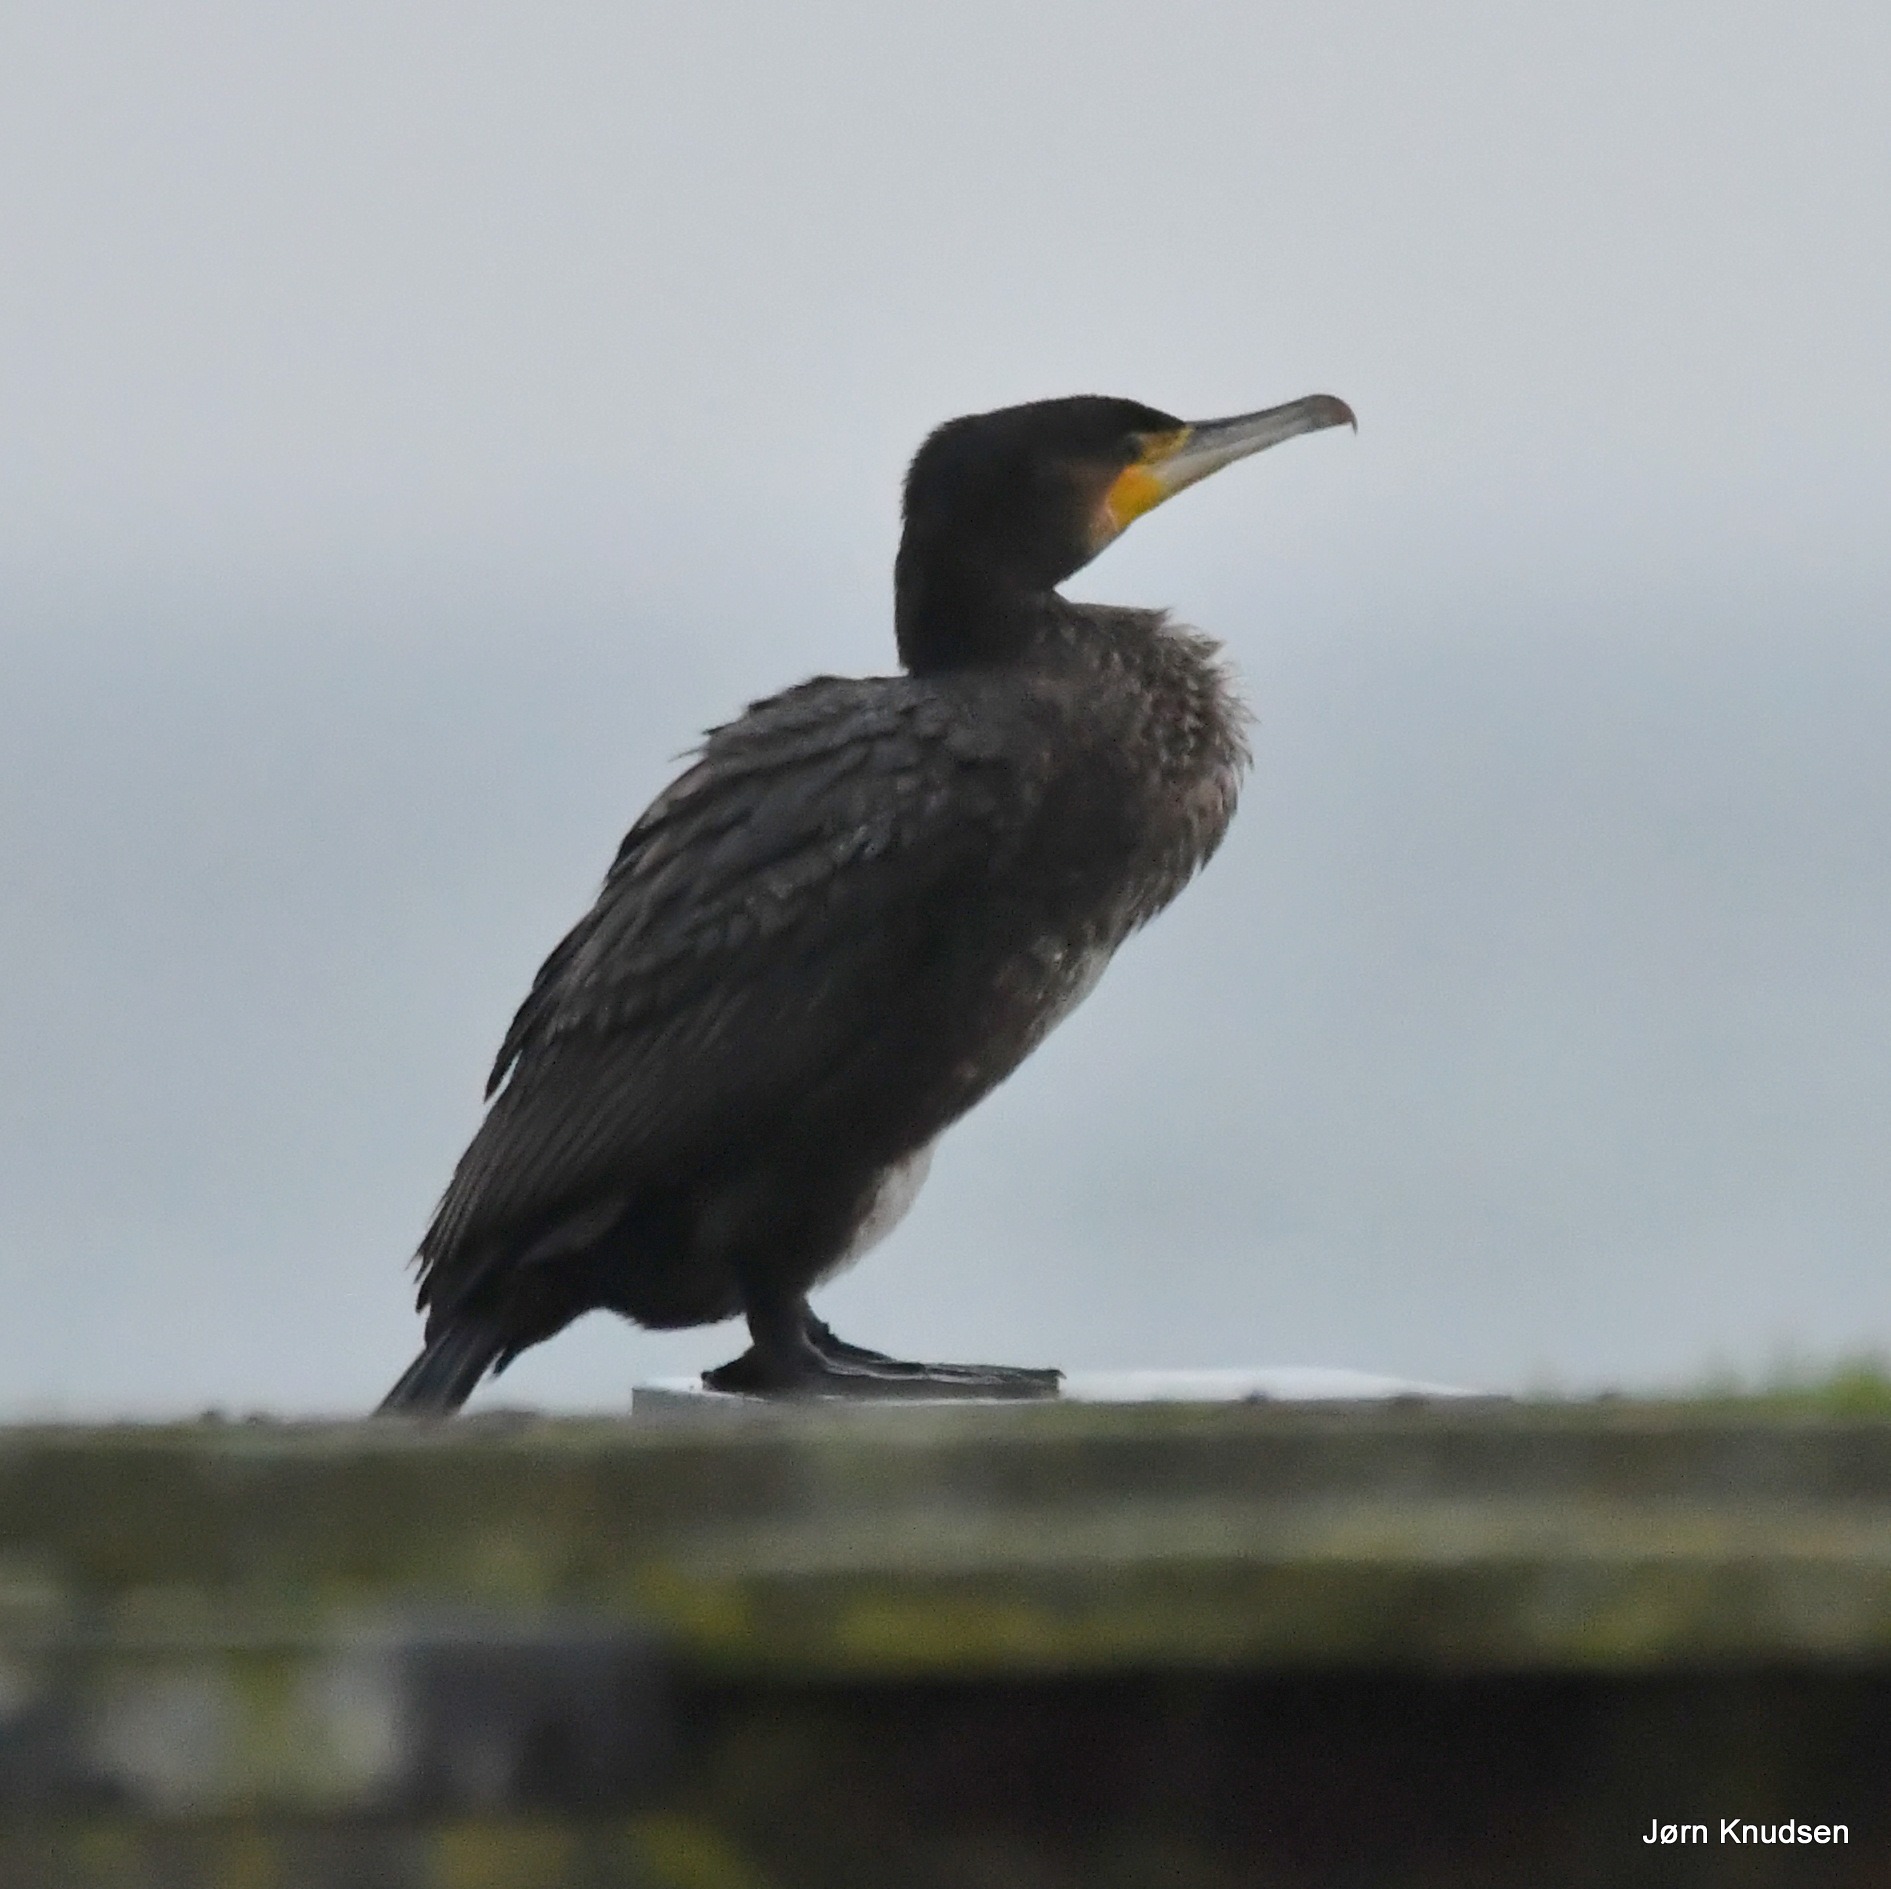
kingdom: Animalia
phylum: Chordata
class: Aves
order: Suliformes
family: Phalacrocoracidae
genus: Phalacrocorax
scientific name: Phalacrocorax carbo
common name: Skarv
